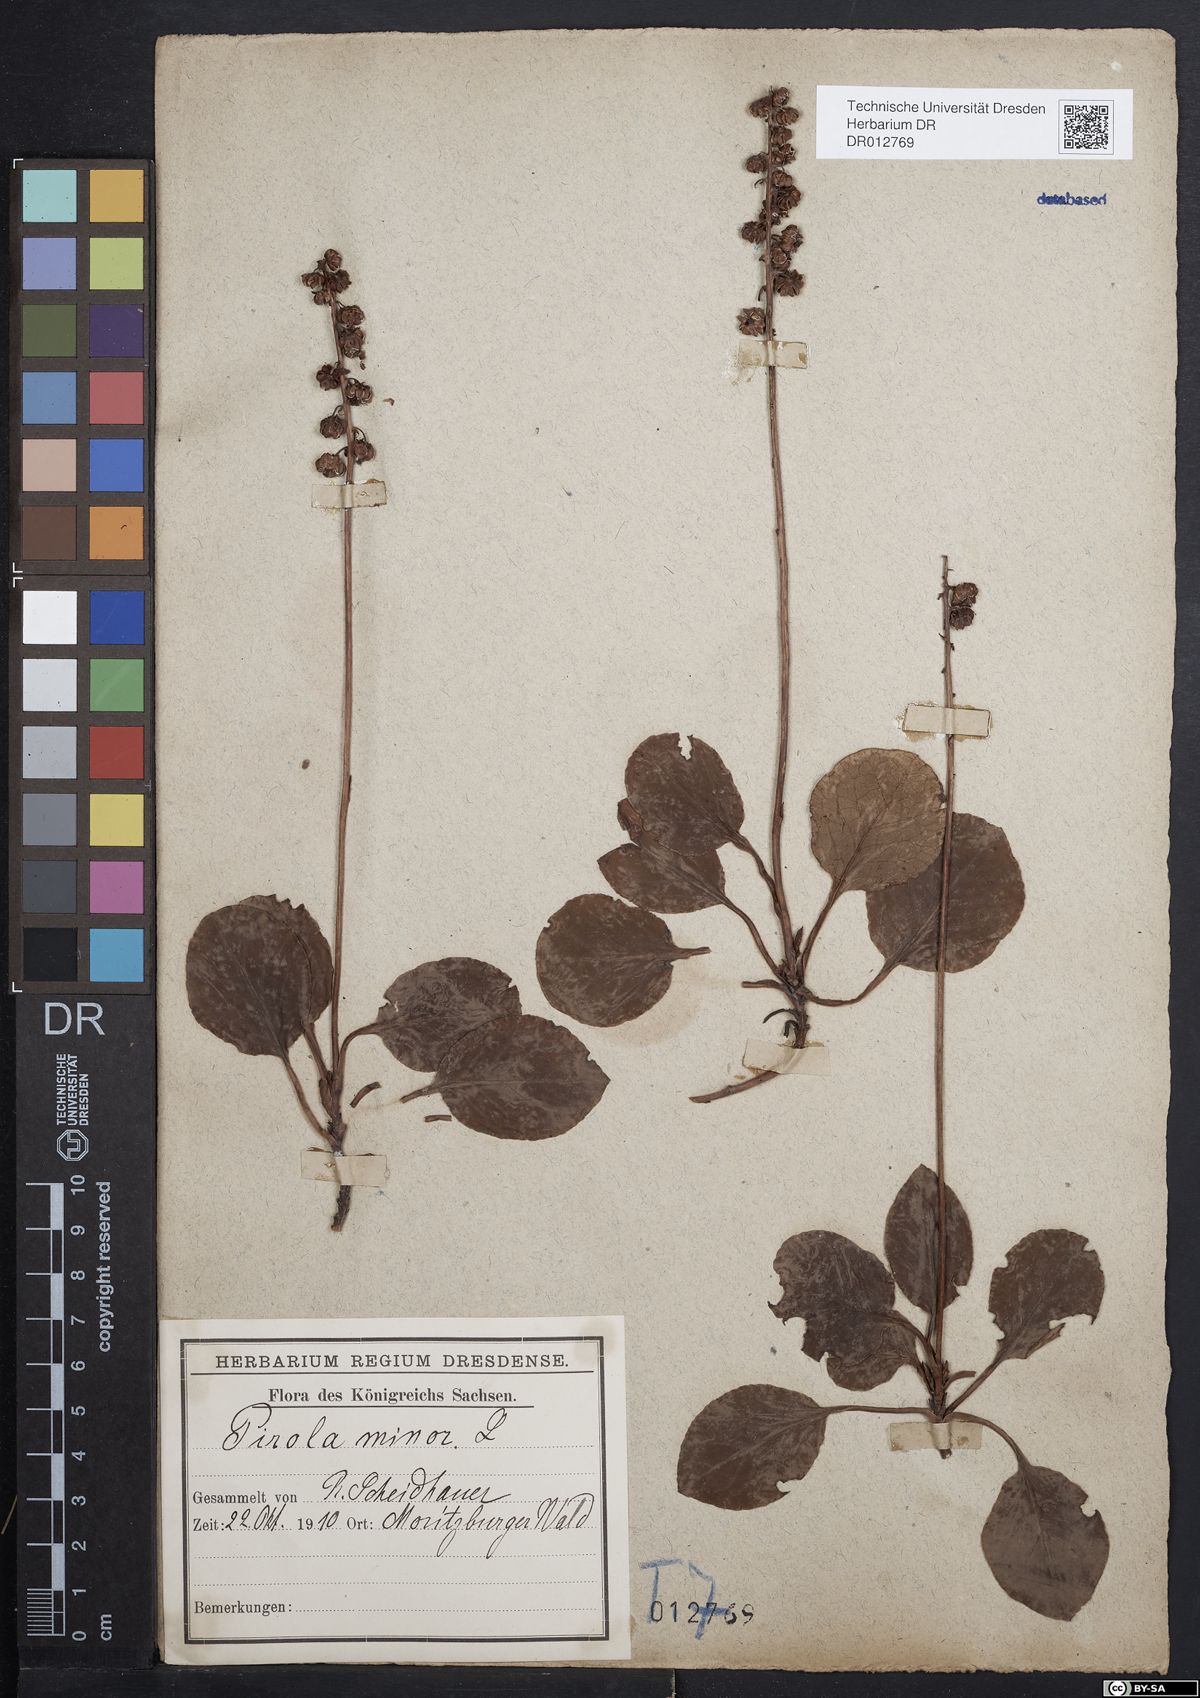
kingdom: Plantae
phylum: Tracheophyta
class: Magnoliopsida
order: Ericales
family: Ericaceae
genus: Pyrola
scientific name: Pyrola minor
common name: Common wintergreen
